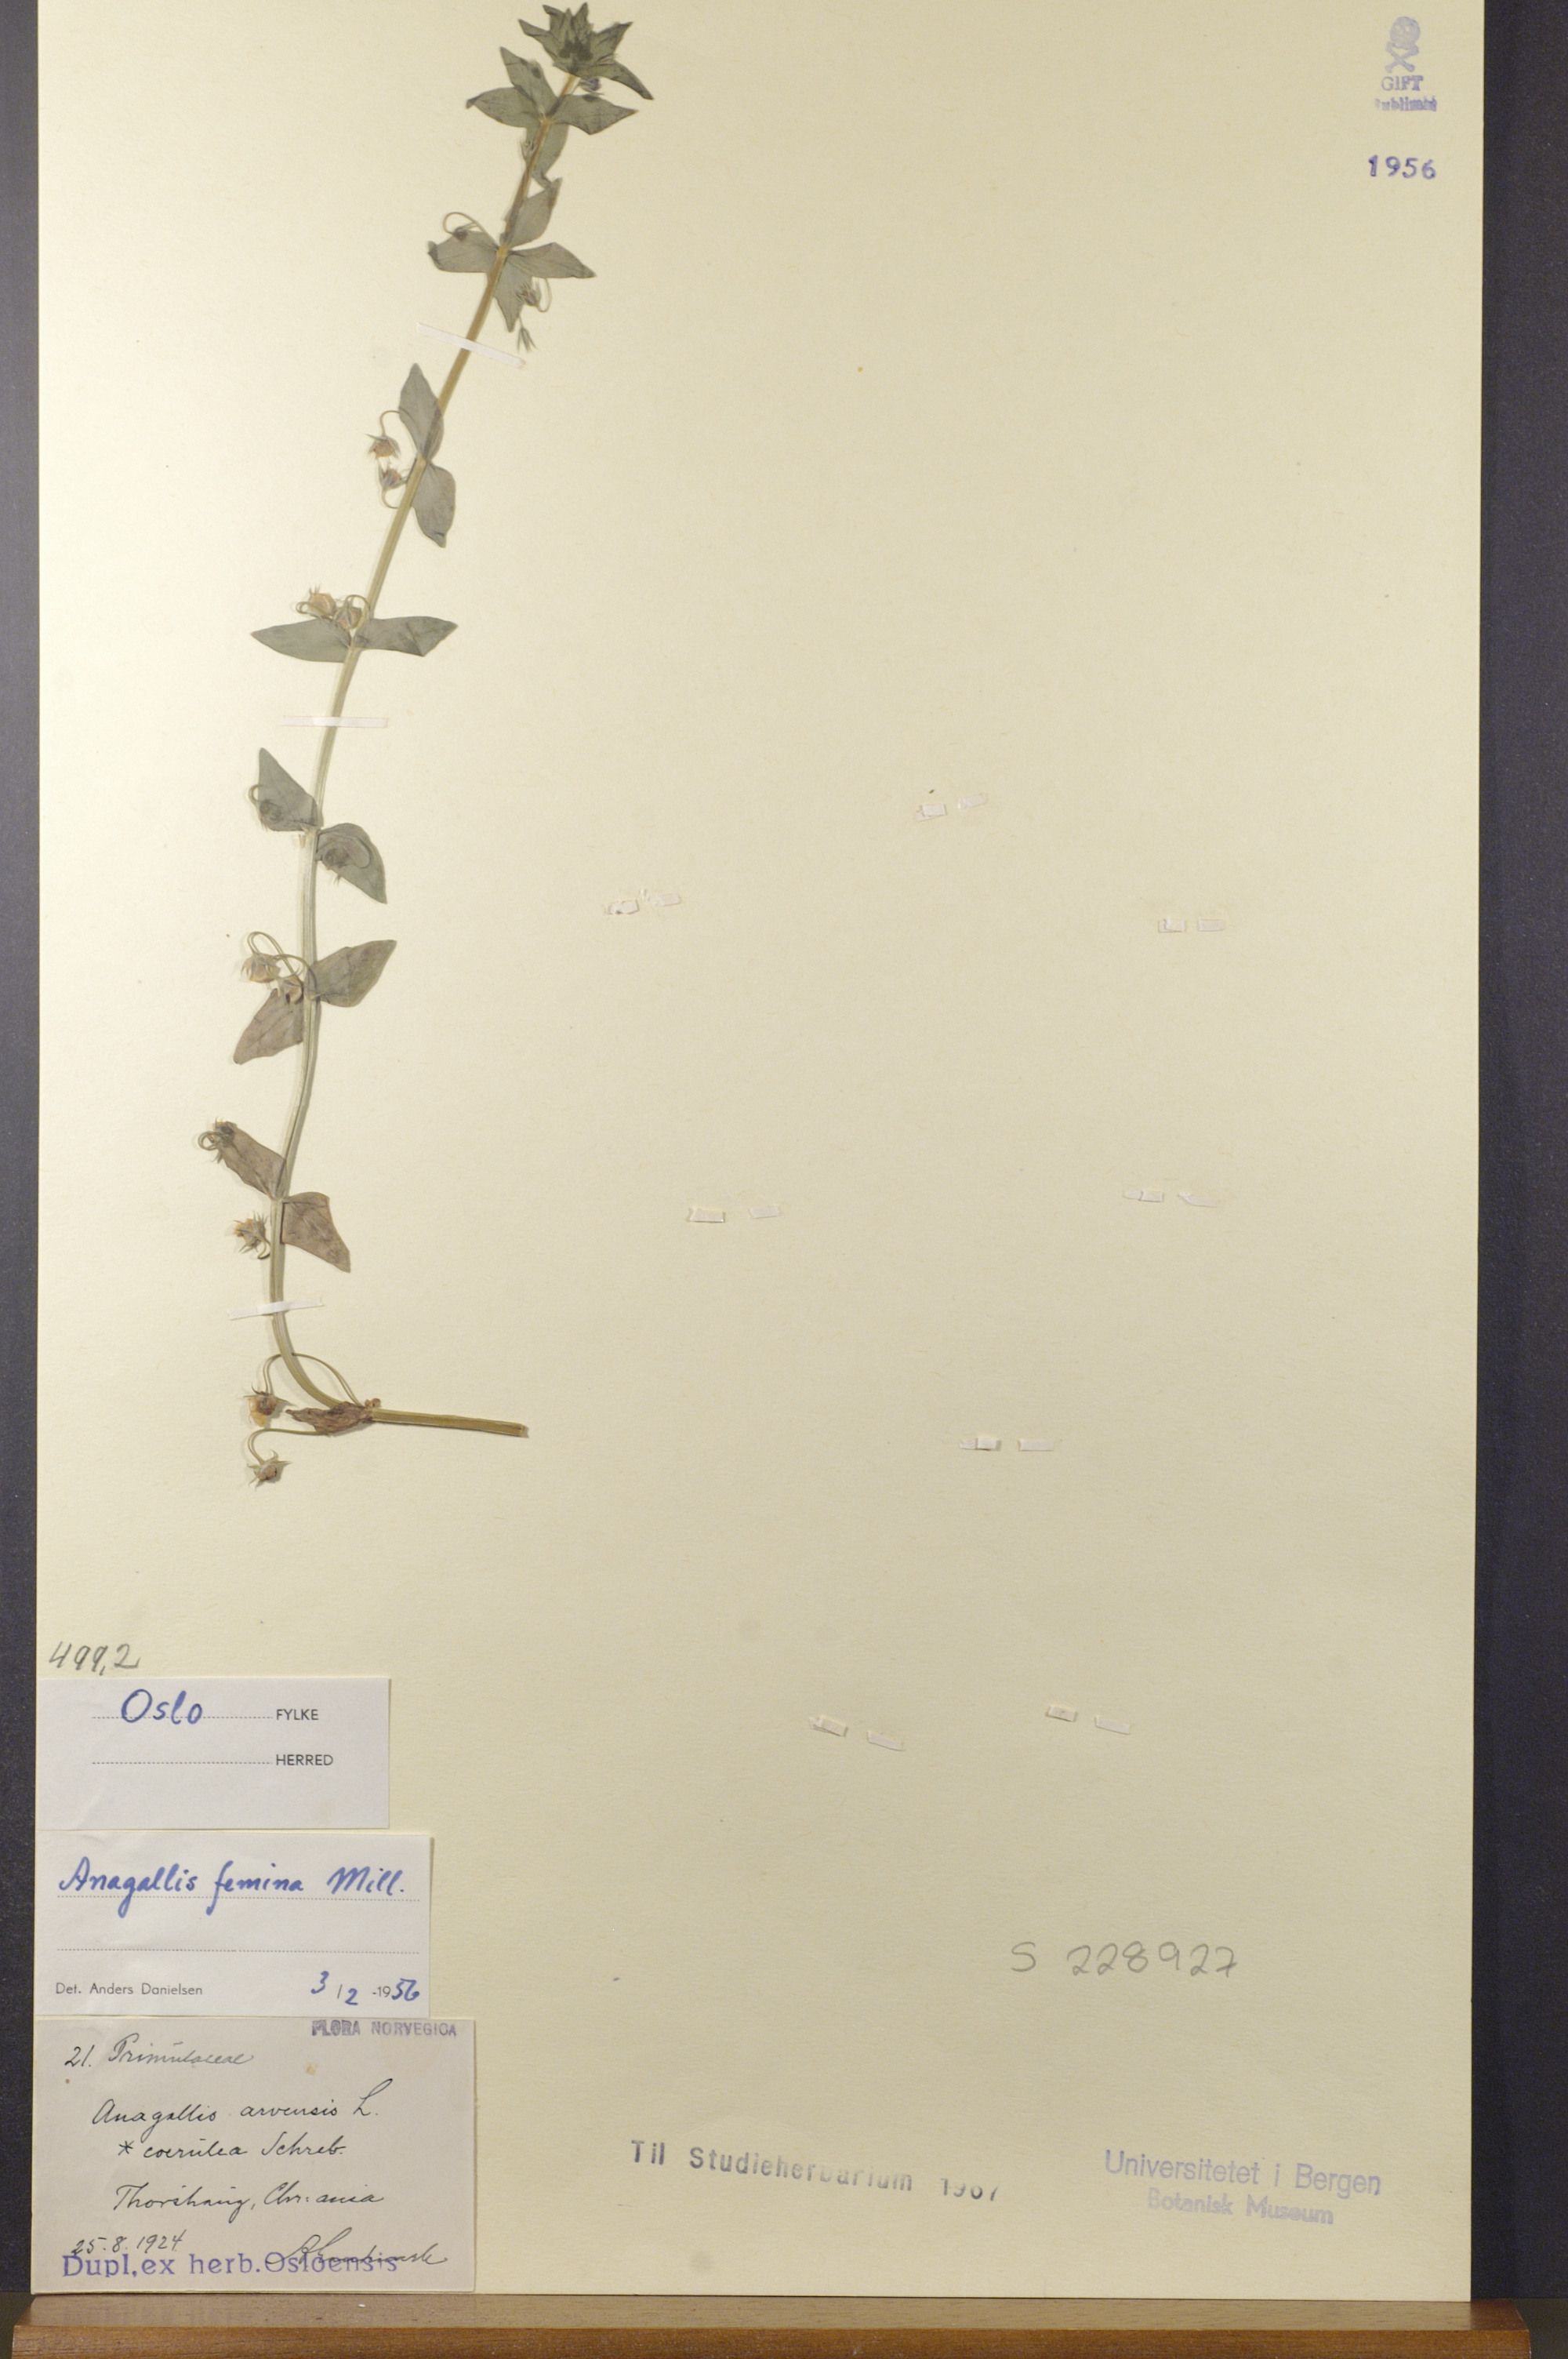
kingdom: Plantae
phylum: Tracheophyta
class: Magnoliopsida
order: Ericales
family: Primulaceae
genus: Lysimachia
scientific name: Lysimachia foemina
